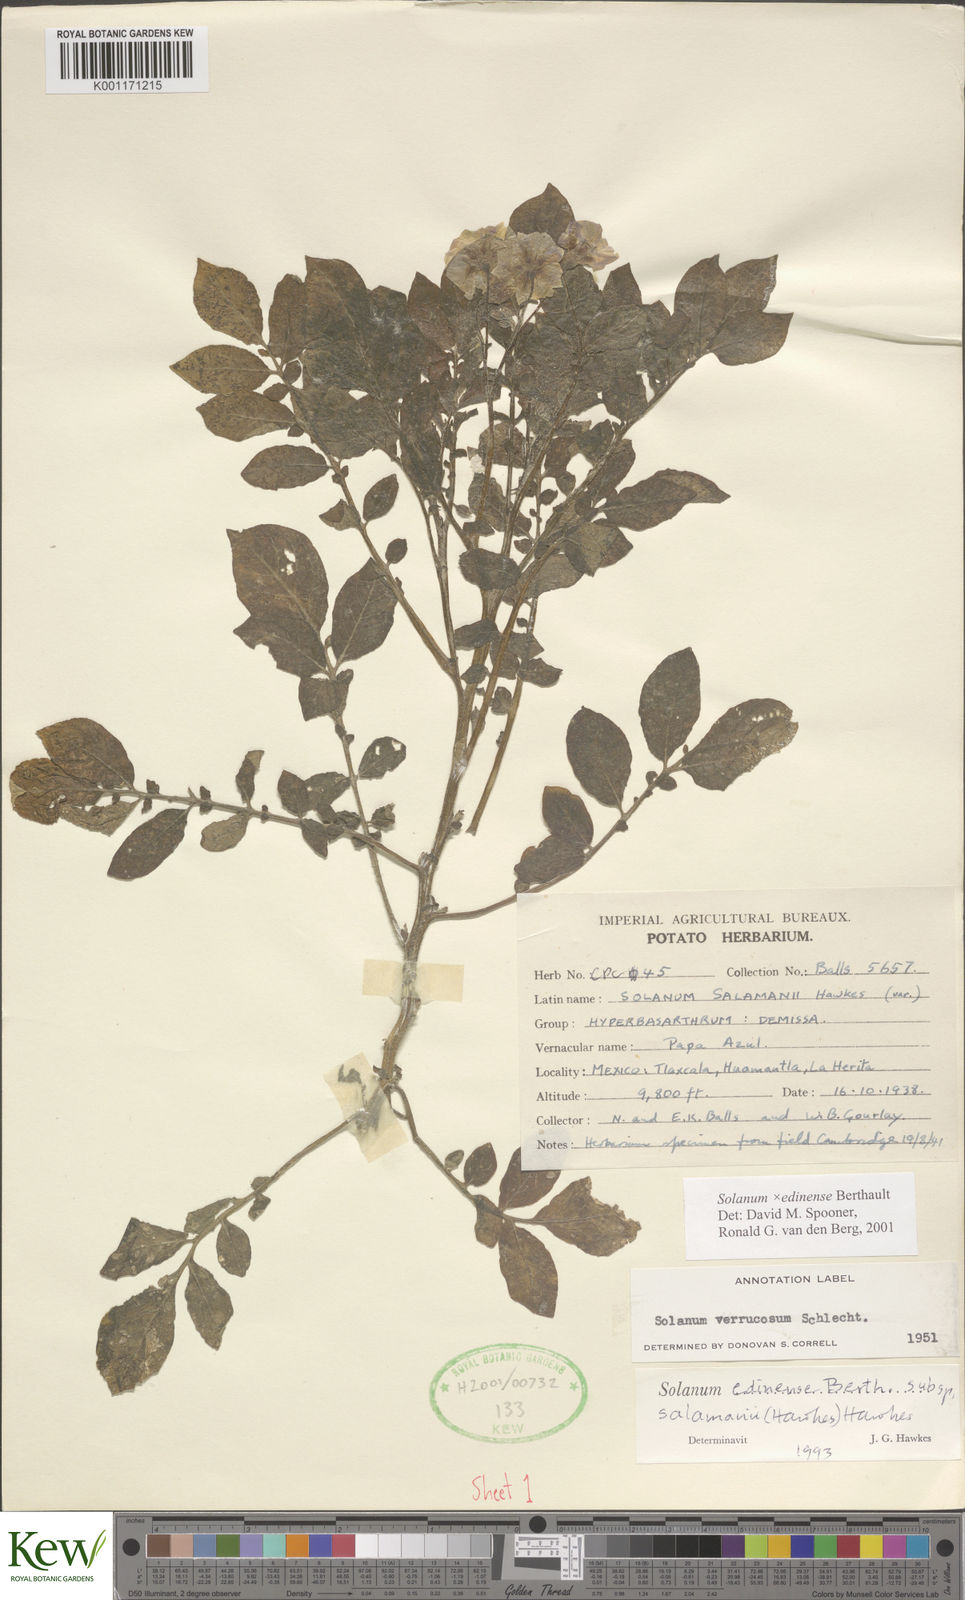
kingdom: Plantae
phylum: Tracheophyta
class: Magnoliopsida
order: Solanales
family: Solanaceae
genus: Solanum
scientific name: Solanum edinense
